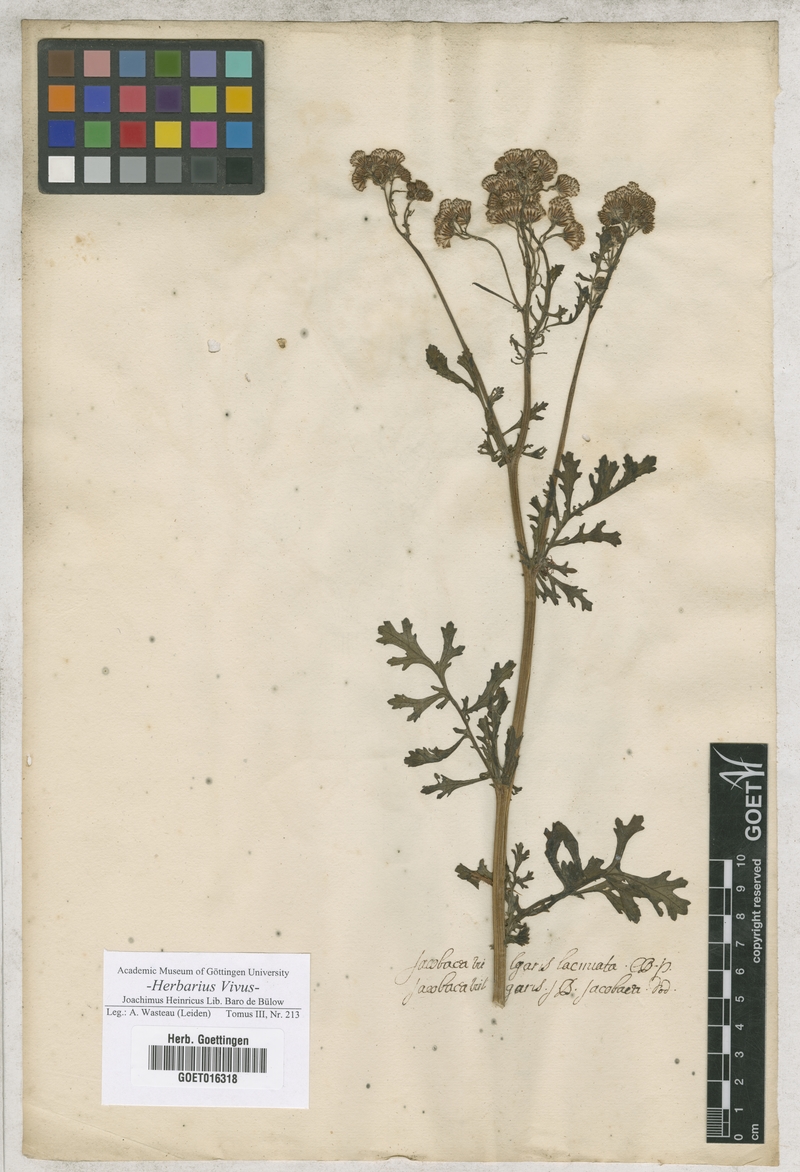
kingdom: Plantae
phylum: Tracheophyta
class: Magnoliopsida
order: Asterales
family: Asteraceae
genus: Jacobaea
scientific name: Jacobaea vulgaris
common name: Stinking willie
